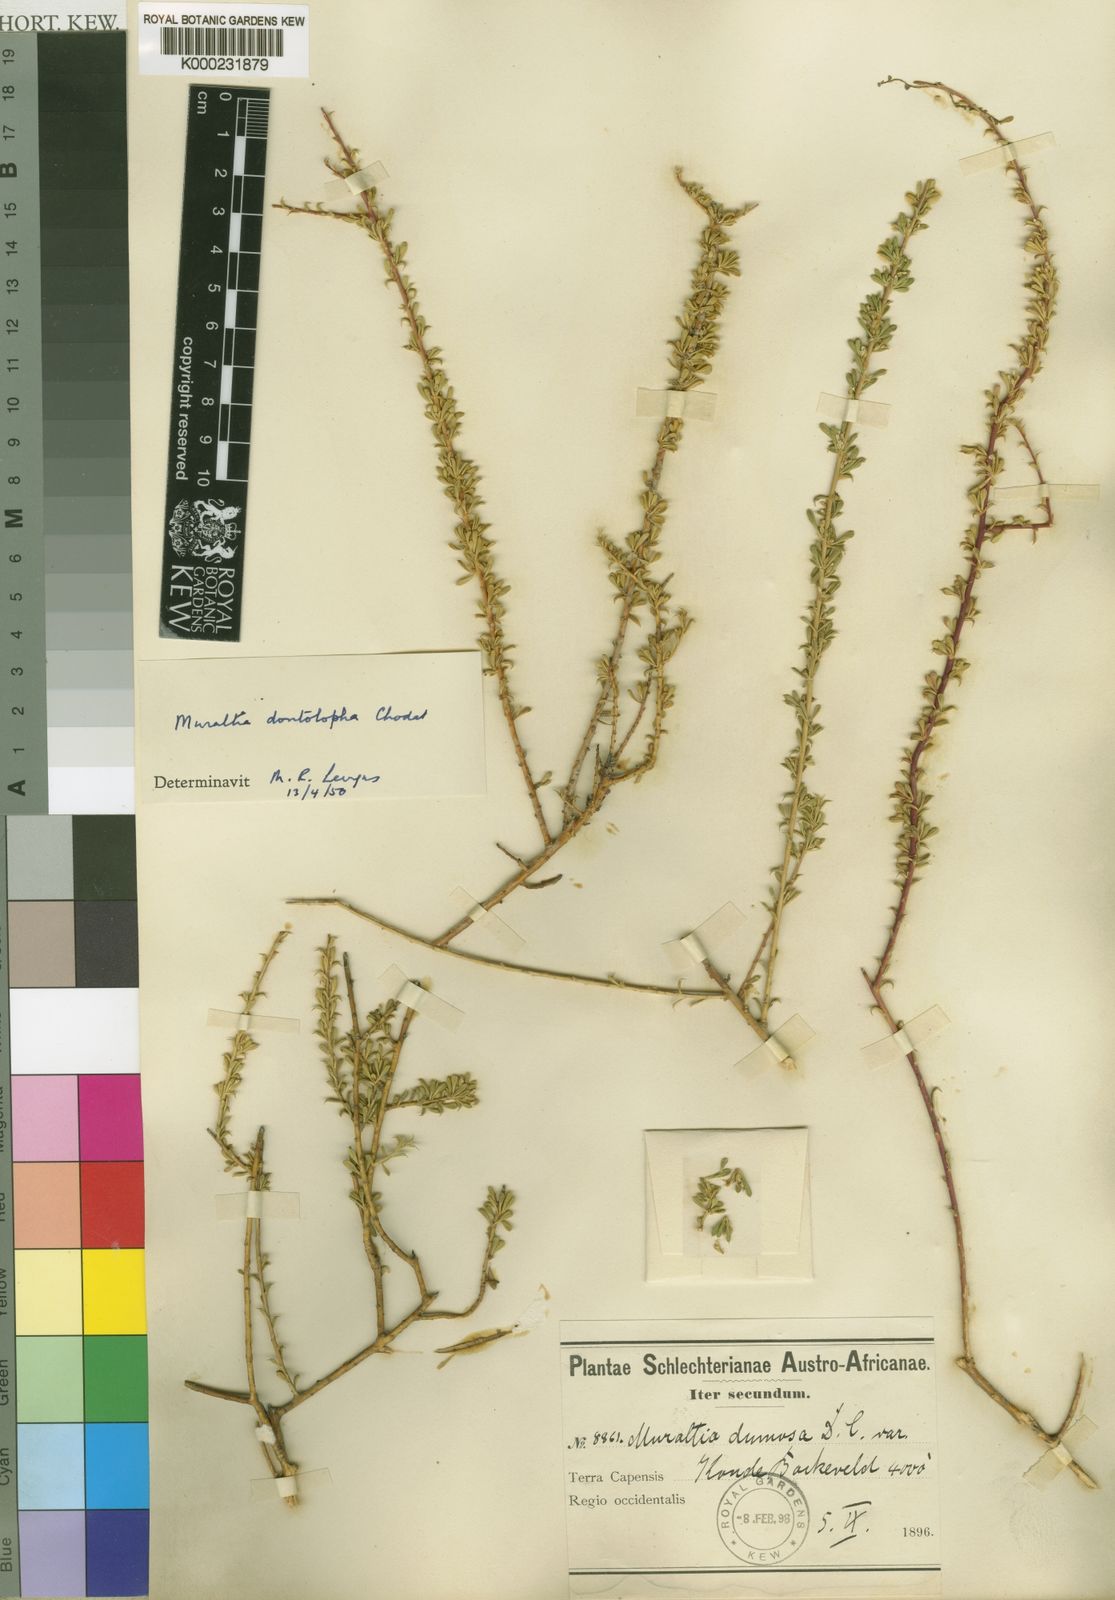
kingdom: Plantae
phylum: Tracheophyta
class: Magnoliopsida
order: Fabales
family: Polygalaceae
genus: Muraltia
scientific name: Muraltia dumosa
